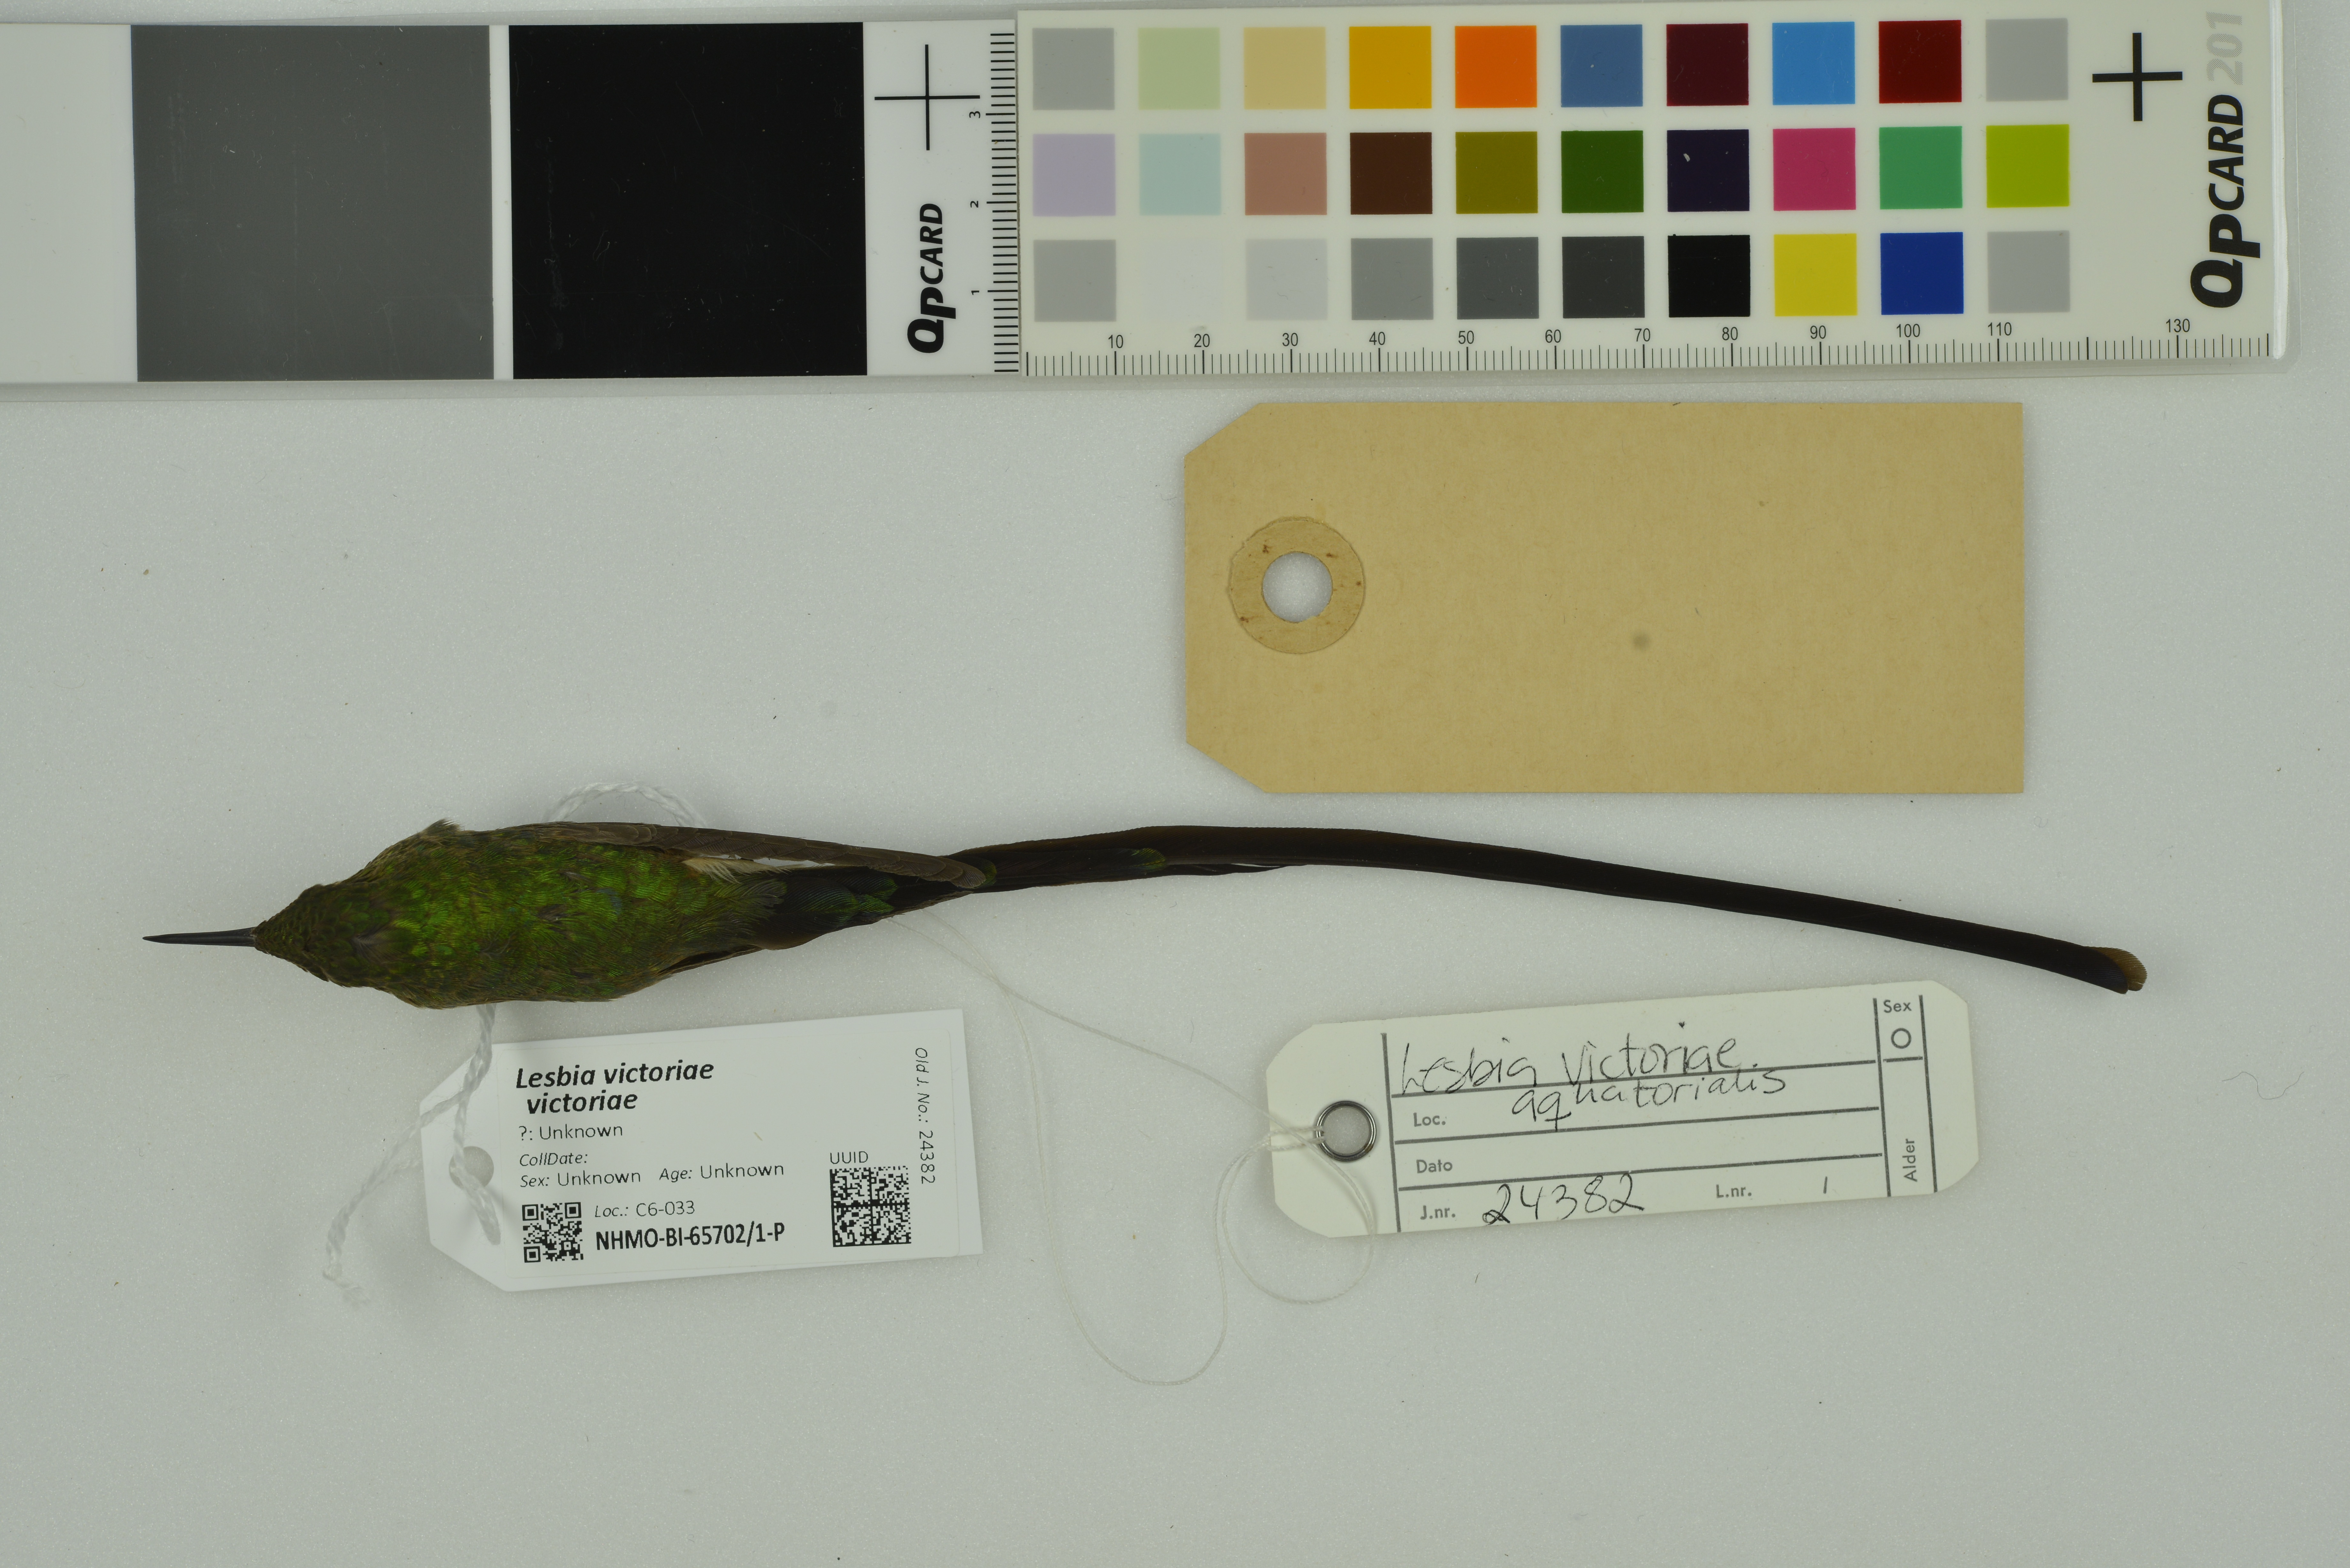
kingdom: Animalia
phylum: Chordata
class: Aves
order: Apodiformes
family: Trochilidae
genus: Lesbia
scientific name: Lesbia victoriae
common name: Black-tailed trainbearer
